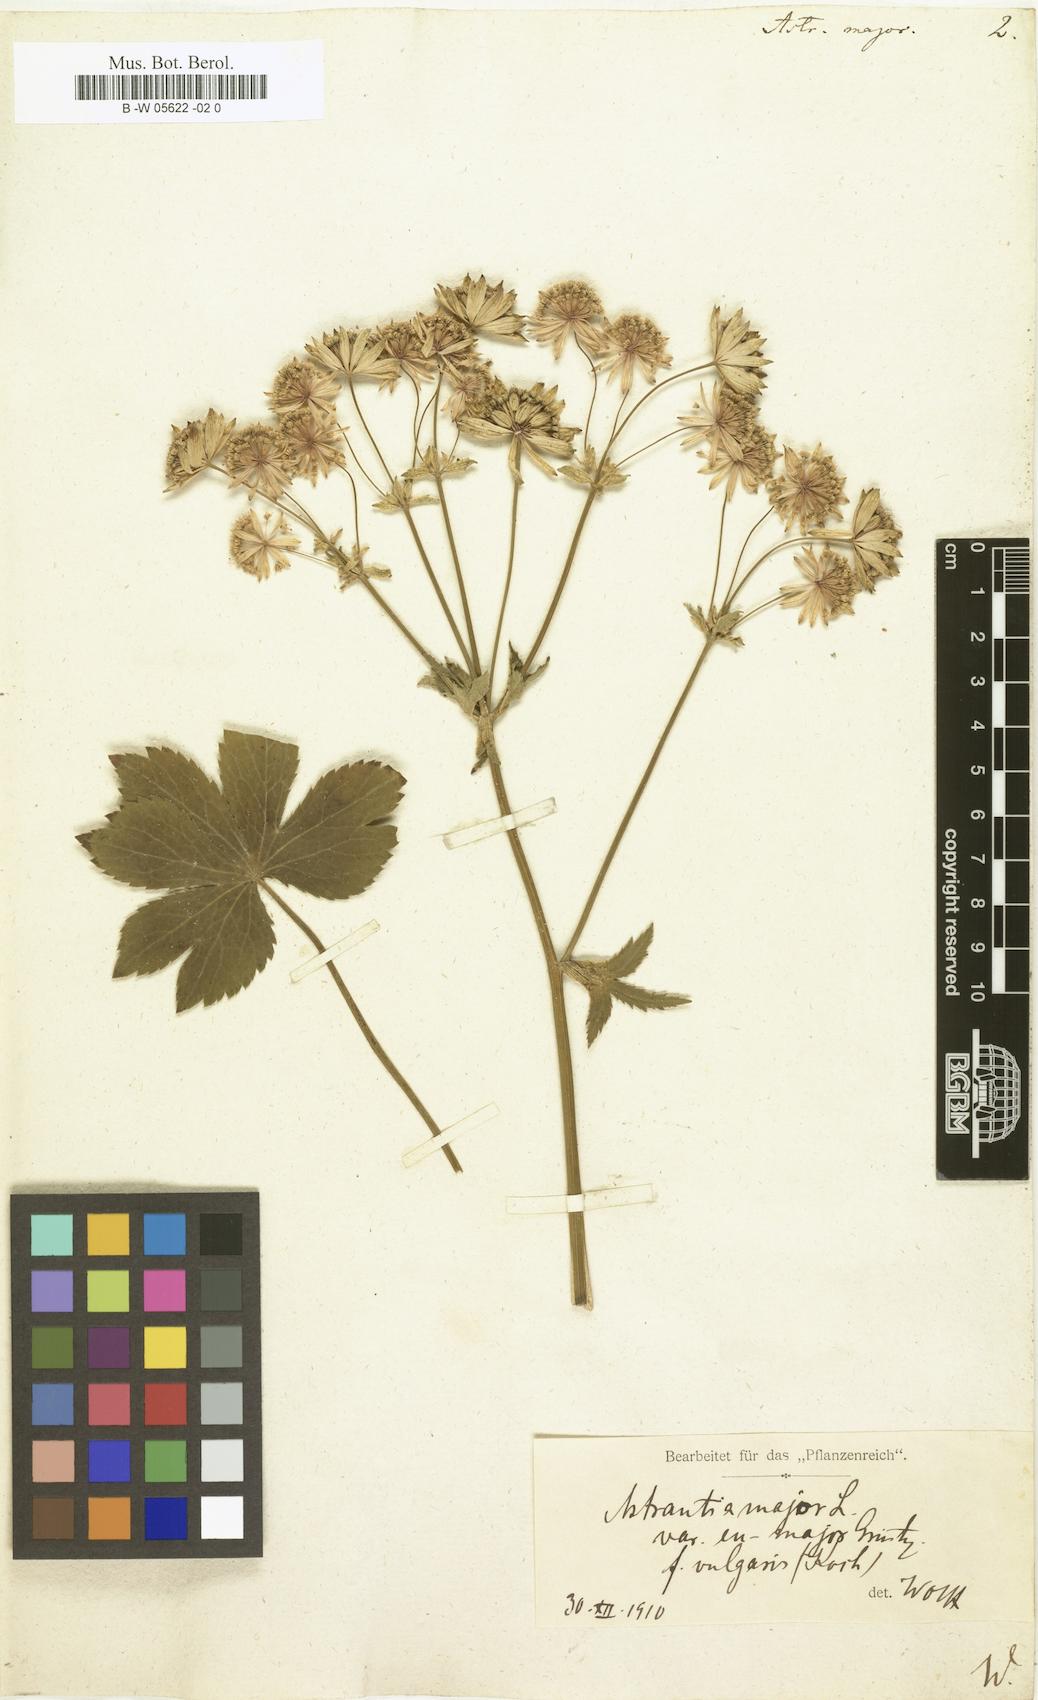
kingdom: Plantae
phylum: Tracheophyta
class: Magnoliopsida
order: Apiales
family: Apiaceae
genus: Astrantia
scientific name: Astrantia major
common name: Greater masterwort
